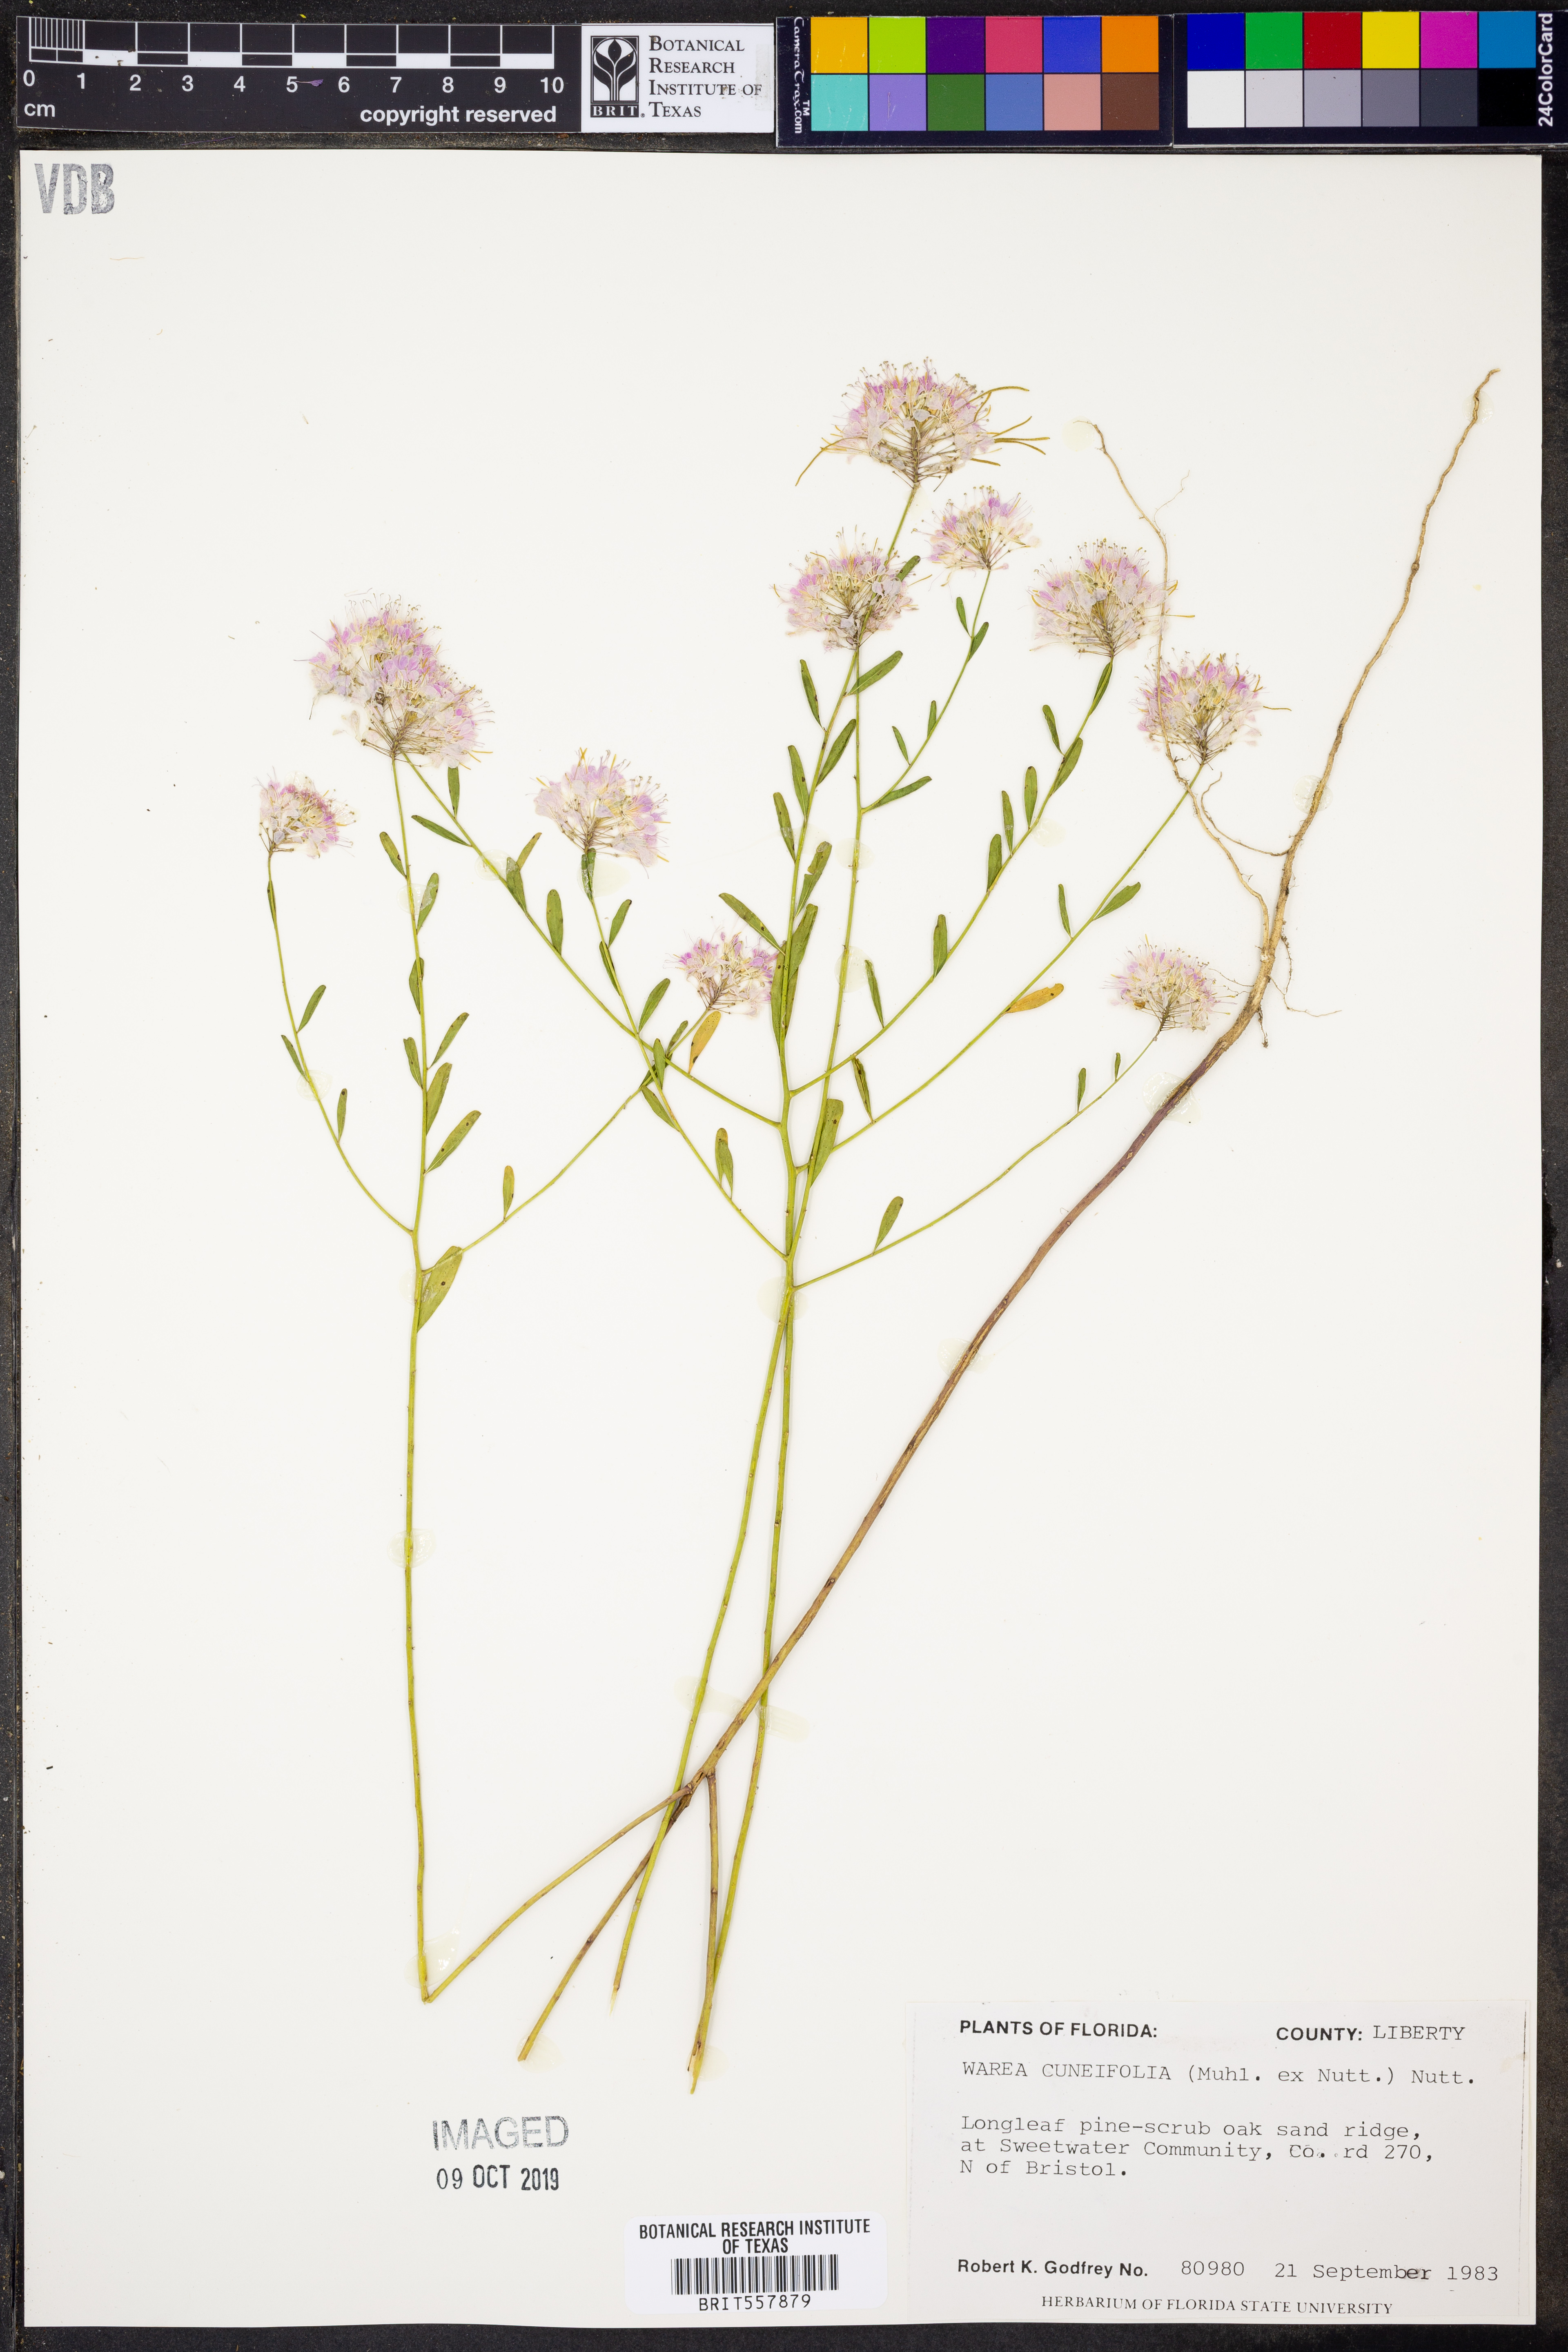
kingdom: Plantae
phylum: Tracheophyta
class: Magnoliopsida
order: Brassicales
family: Brassicaceae
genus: Warea
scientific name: Warea cuneifolia
